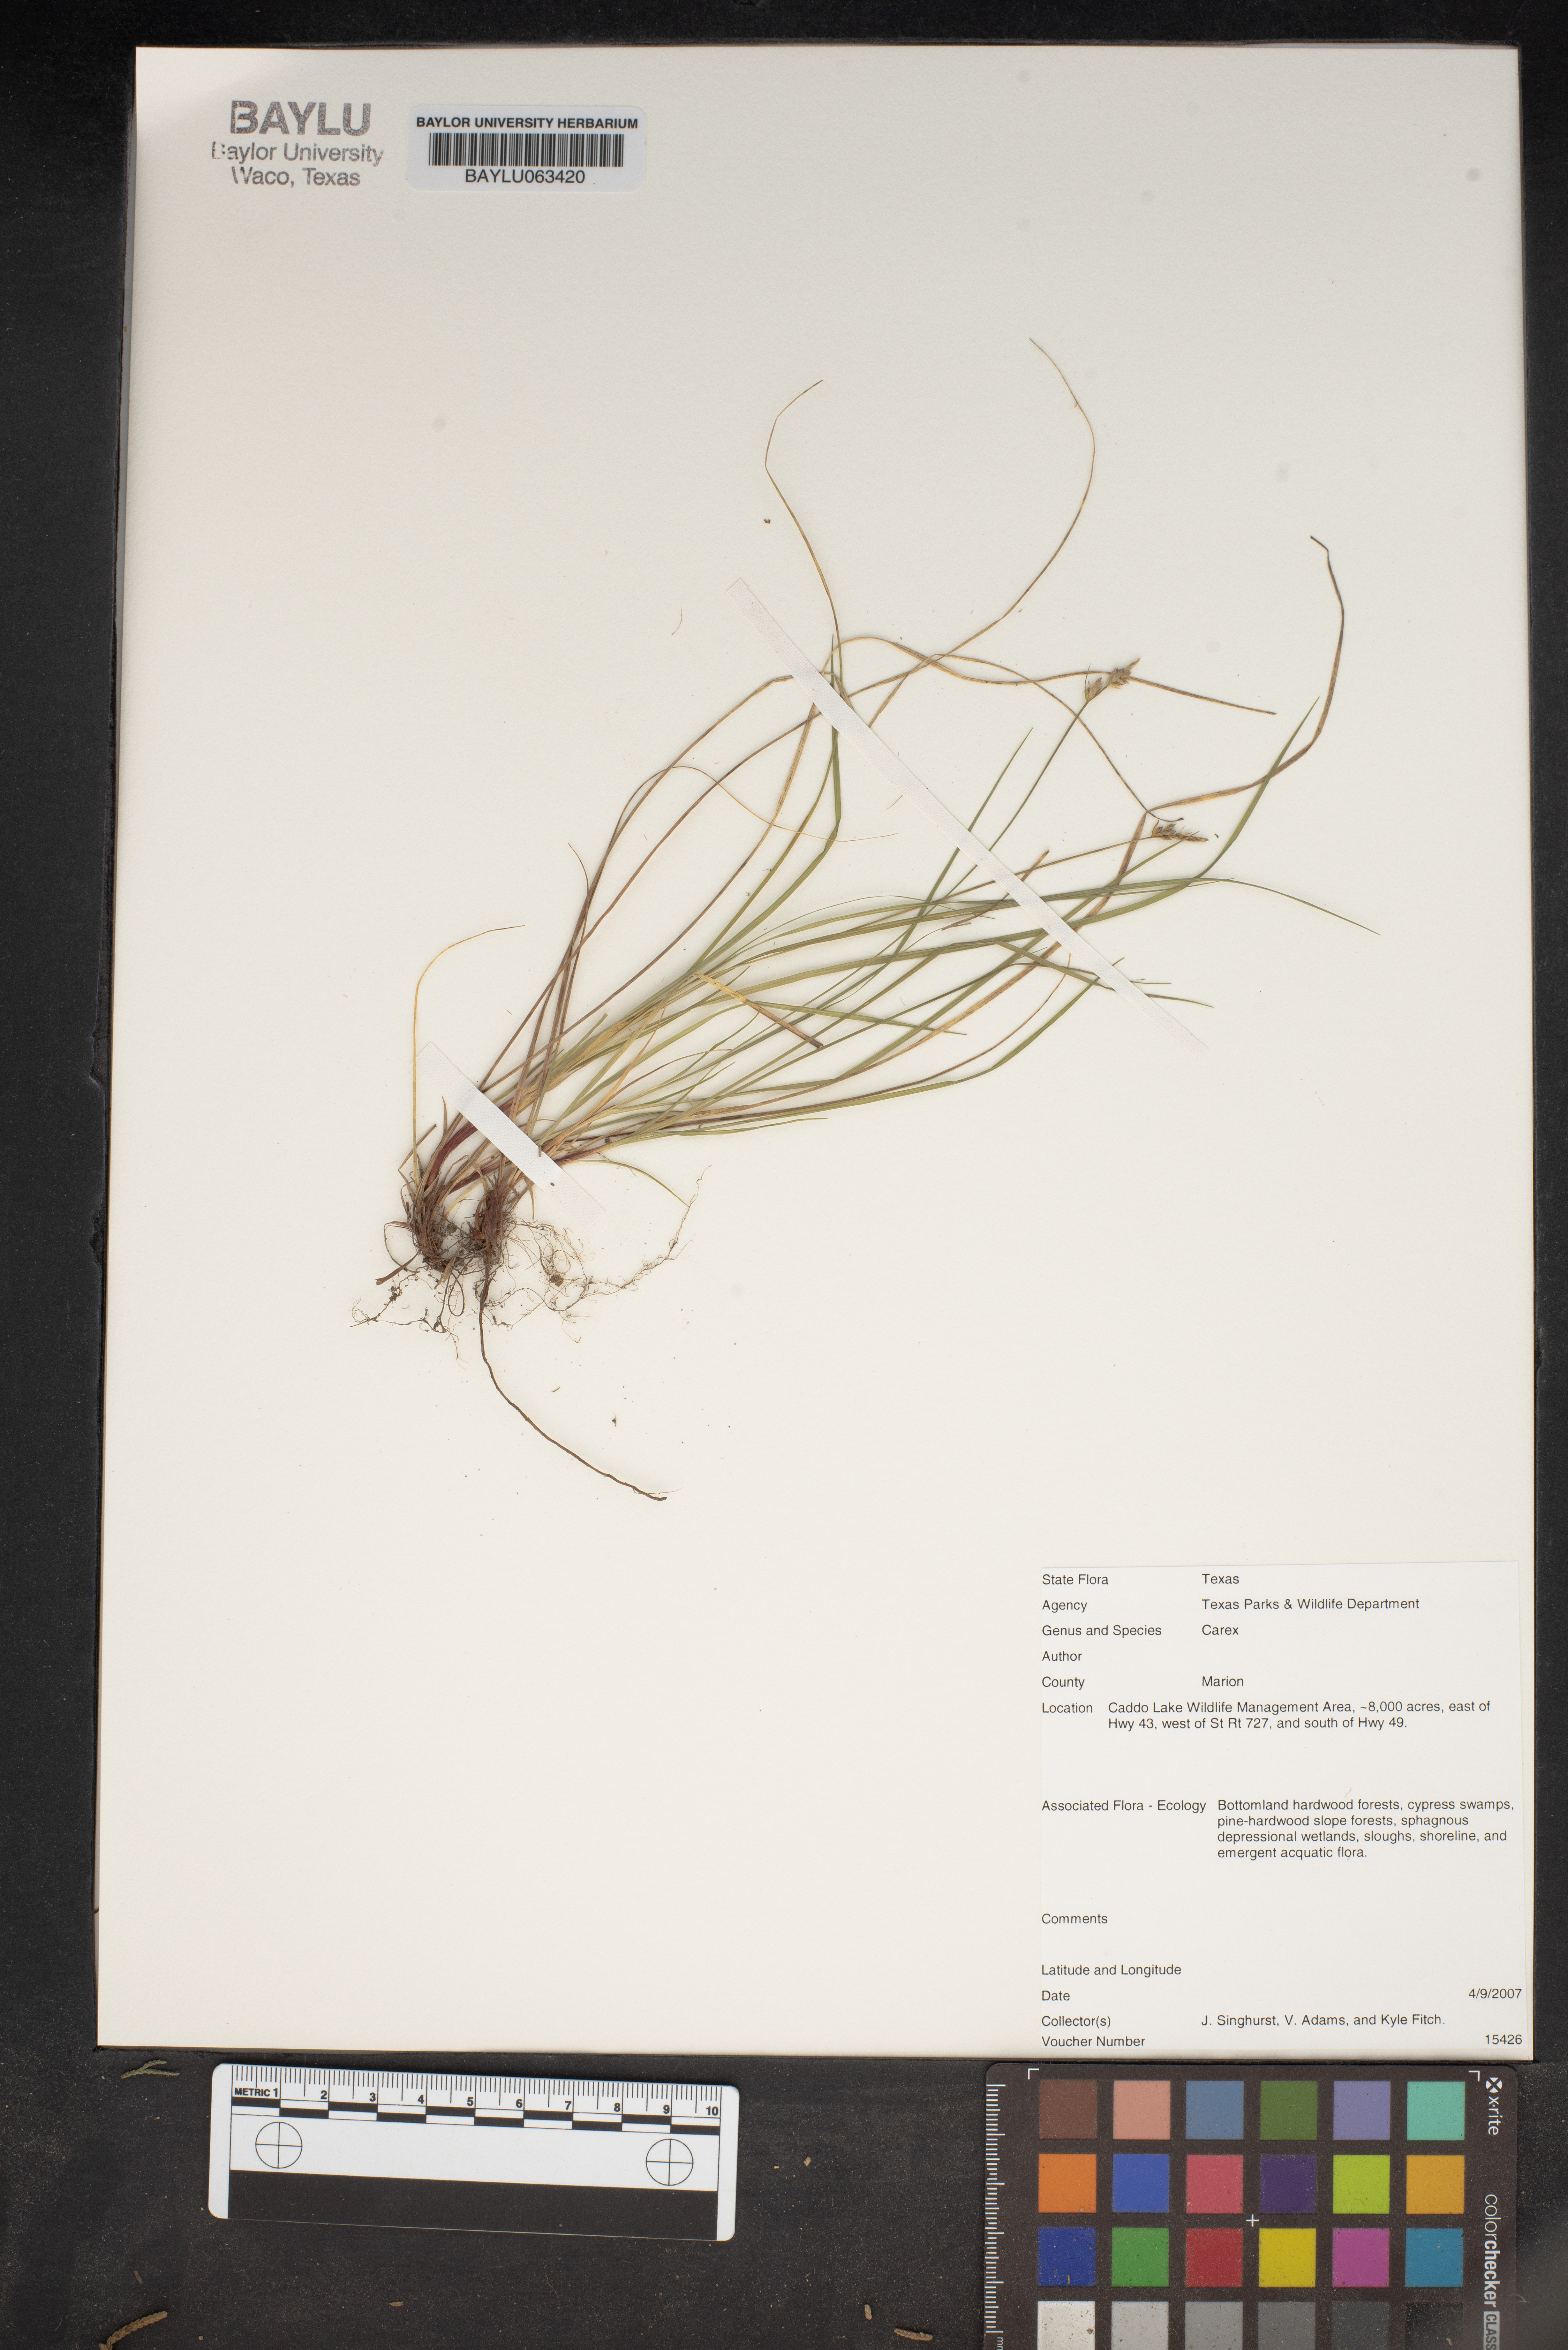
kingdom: Plantae
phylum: Tracheophyta
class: Liliopsida
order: Poales
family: Cyperaceae
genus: Carex
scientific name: Carex
